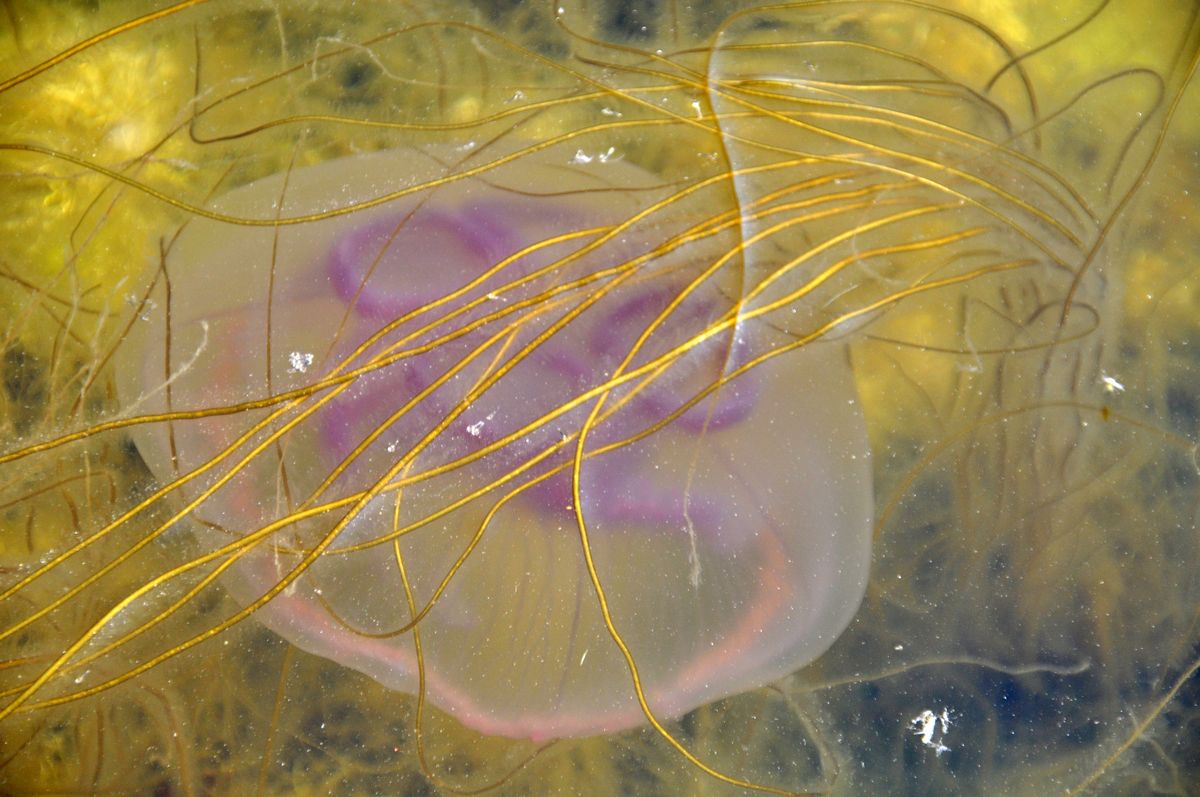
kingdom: Animalia
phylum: Cnidaria
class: Scyphozoa
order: Semaeostomeae
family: Ulmaridae
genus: Aurelia
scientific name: Aurelia aurita
